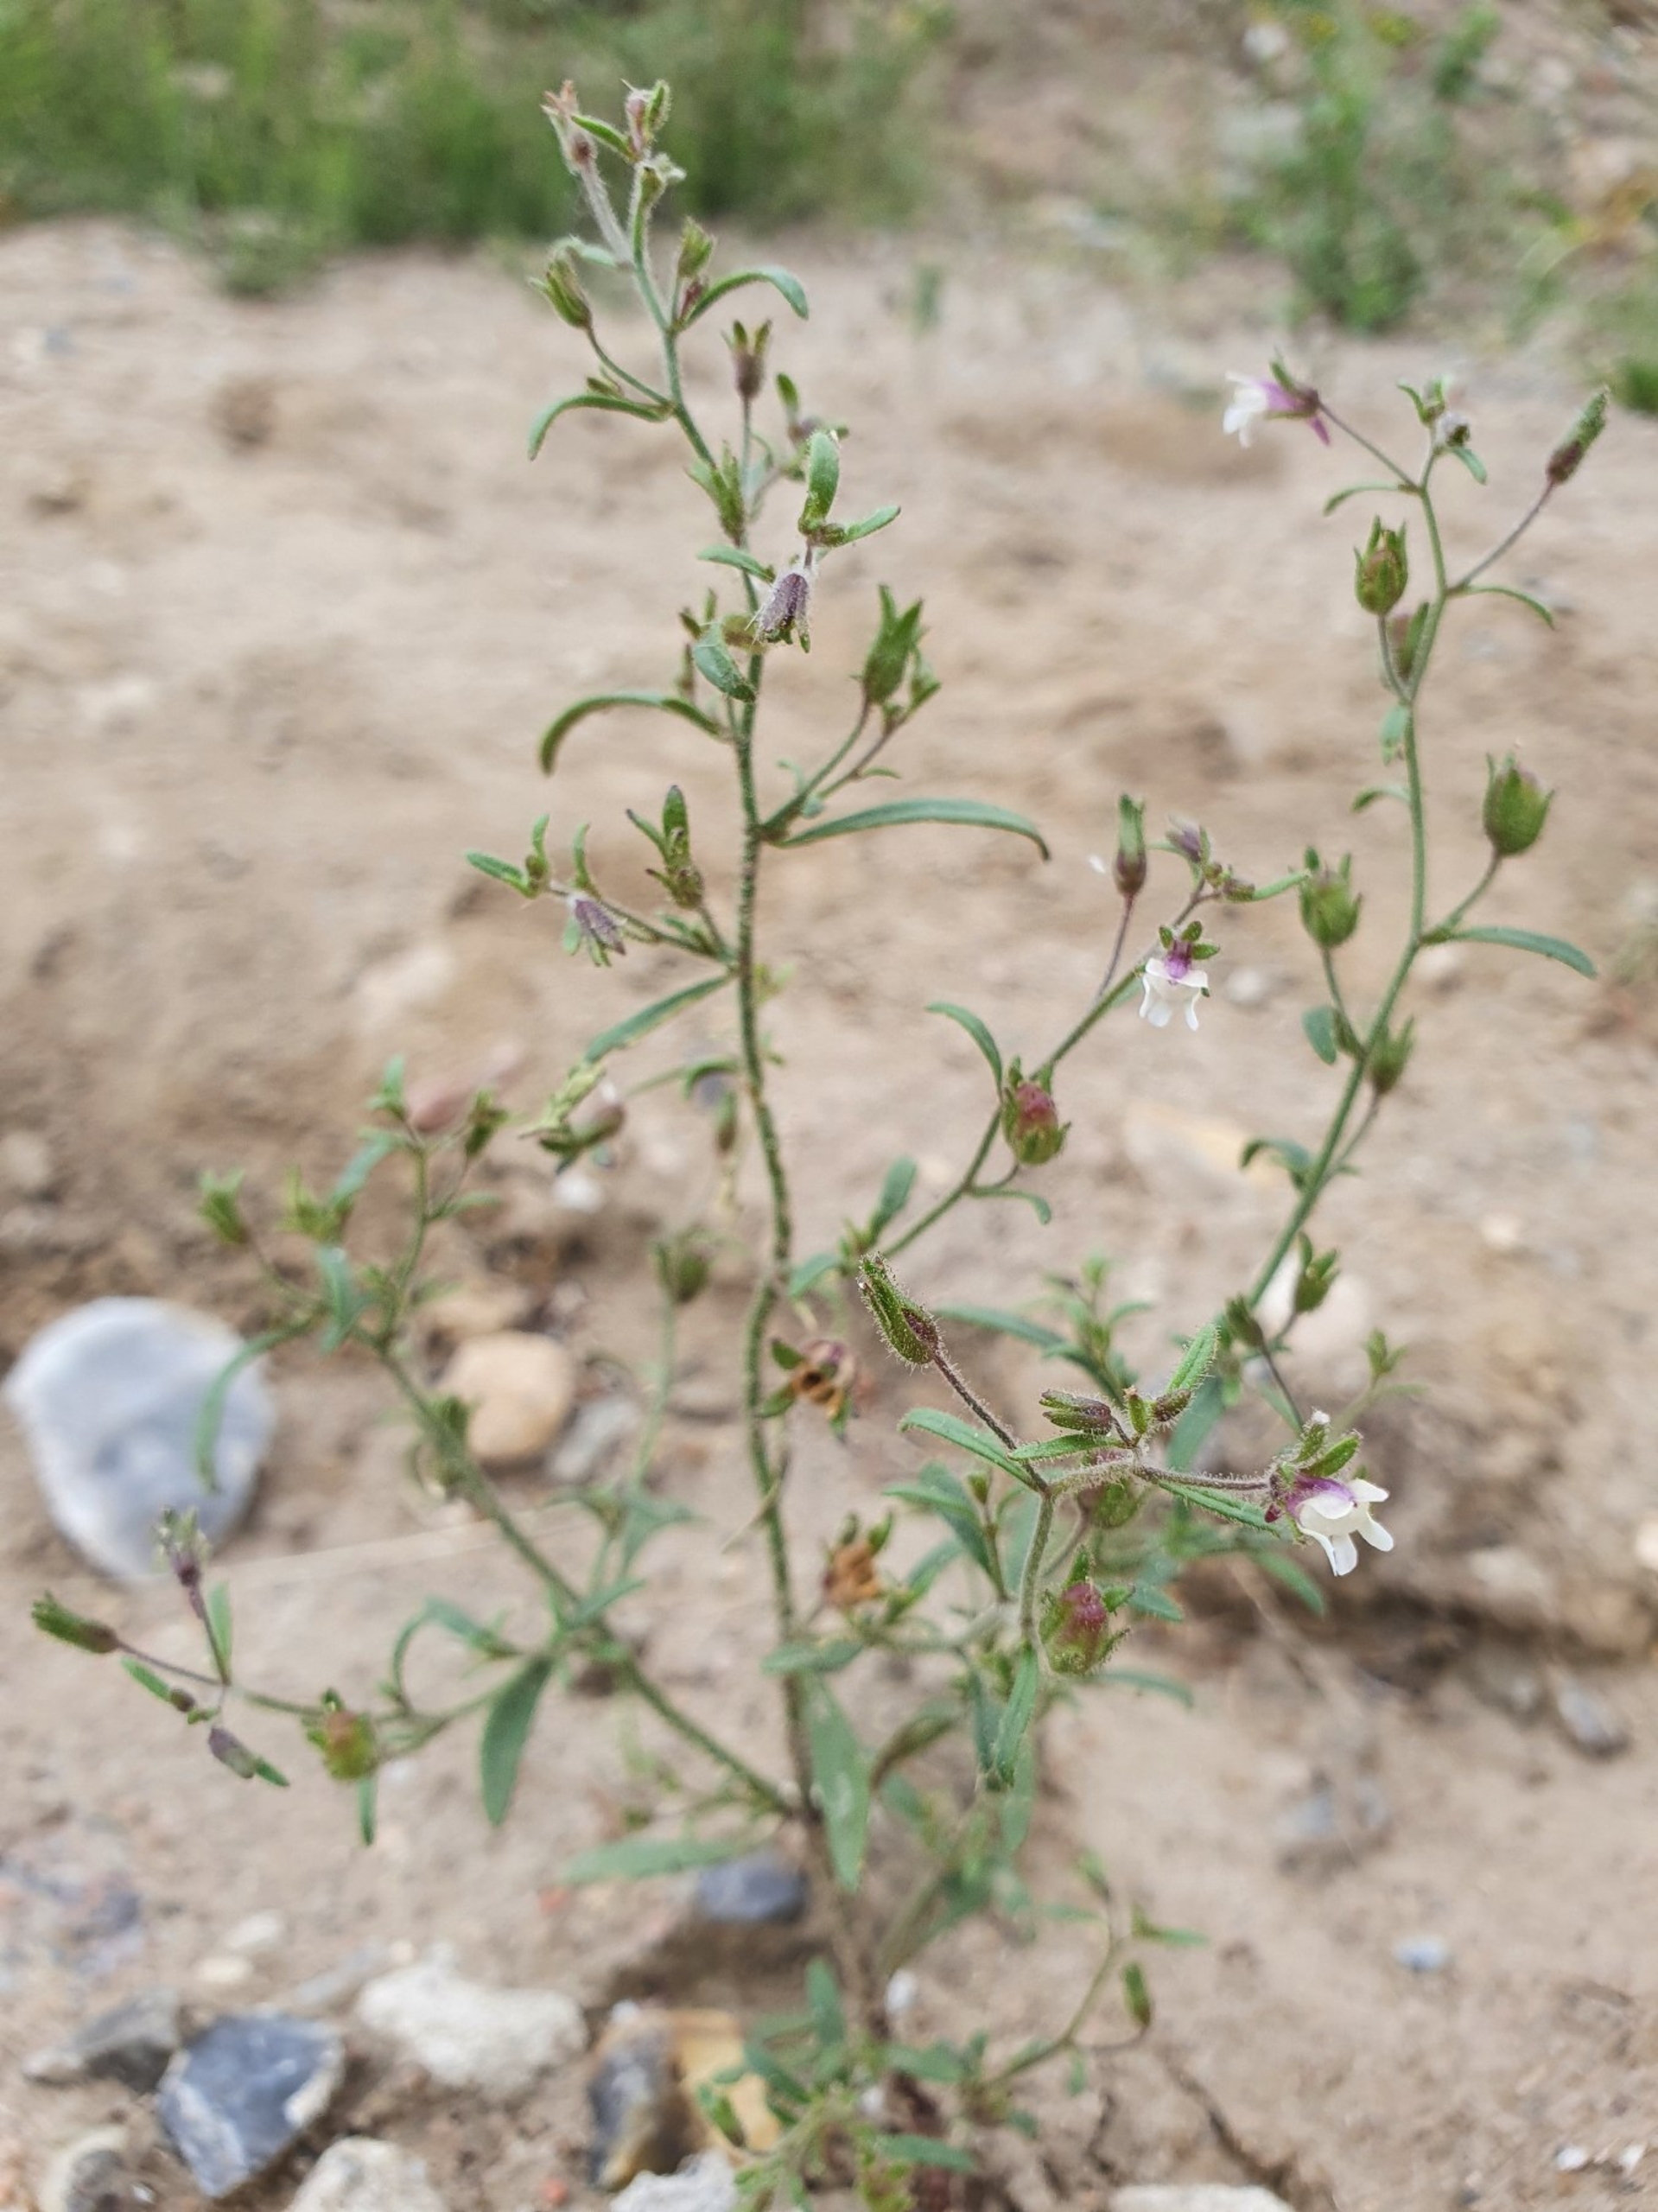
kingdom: Plantae
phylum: Tracheophyta
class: Magnoliopsida
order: Lamiales
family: Plantaginaceae
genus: Chaenorhinum
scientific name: Chaenorhinum minus
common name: Liden torskemund
